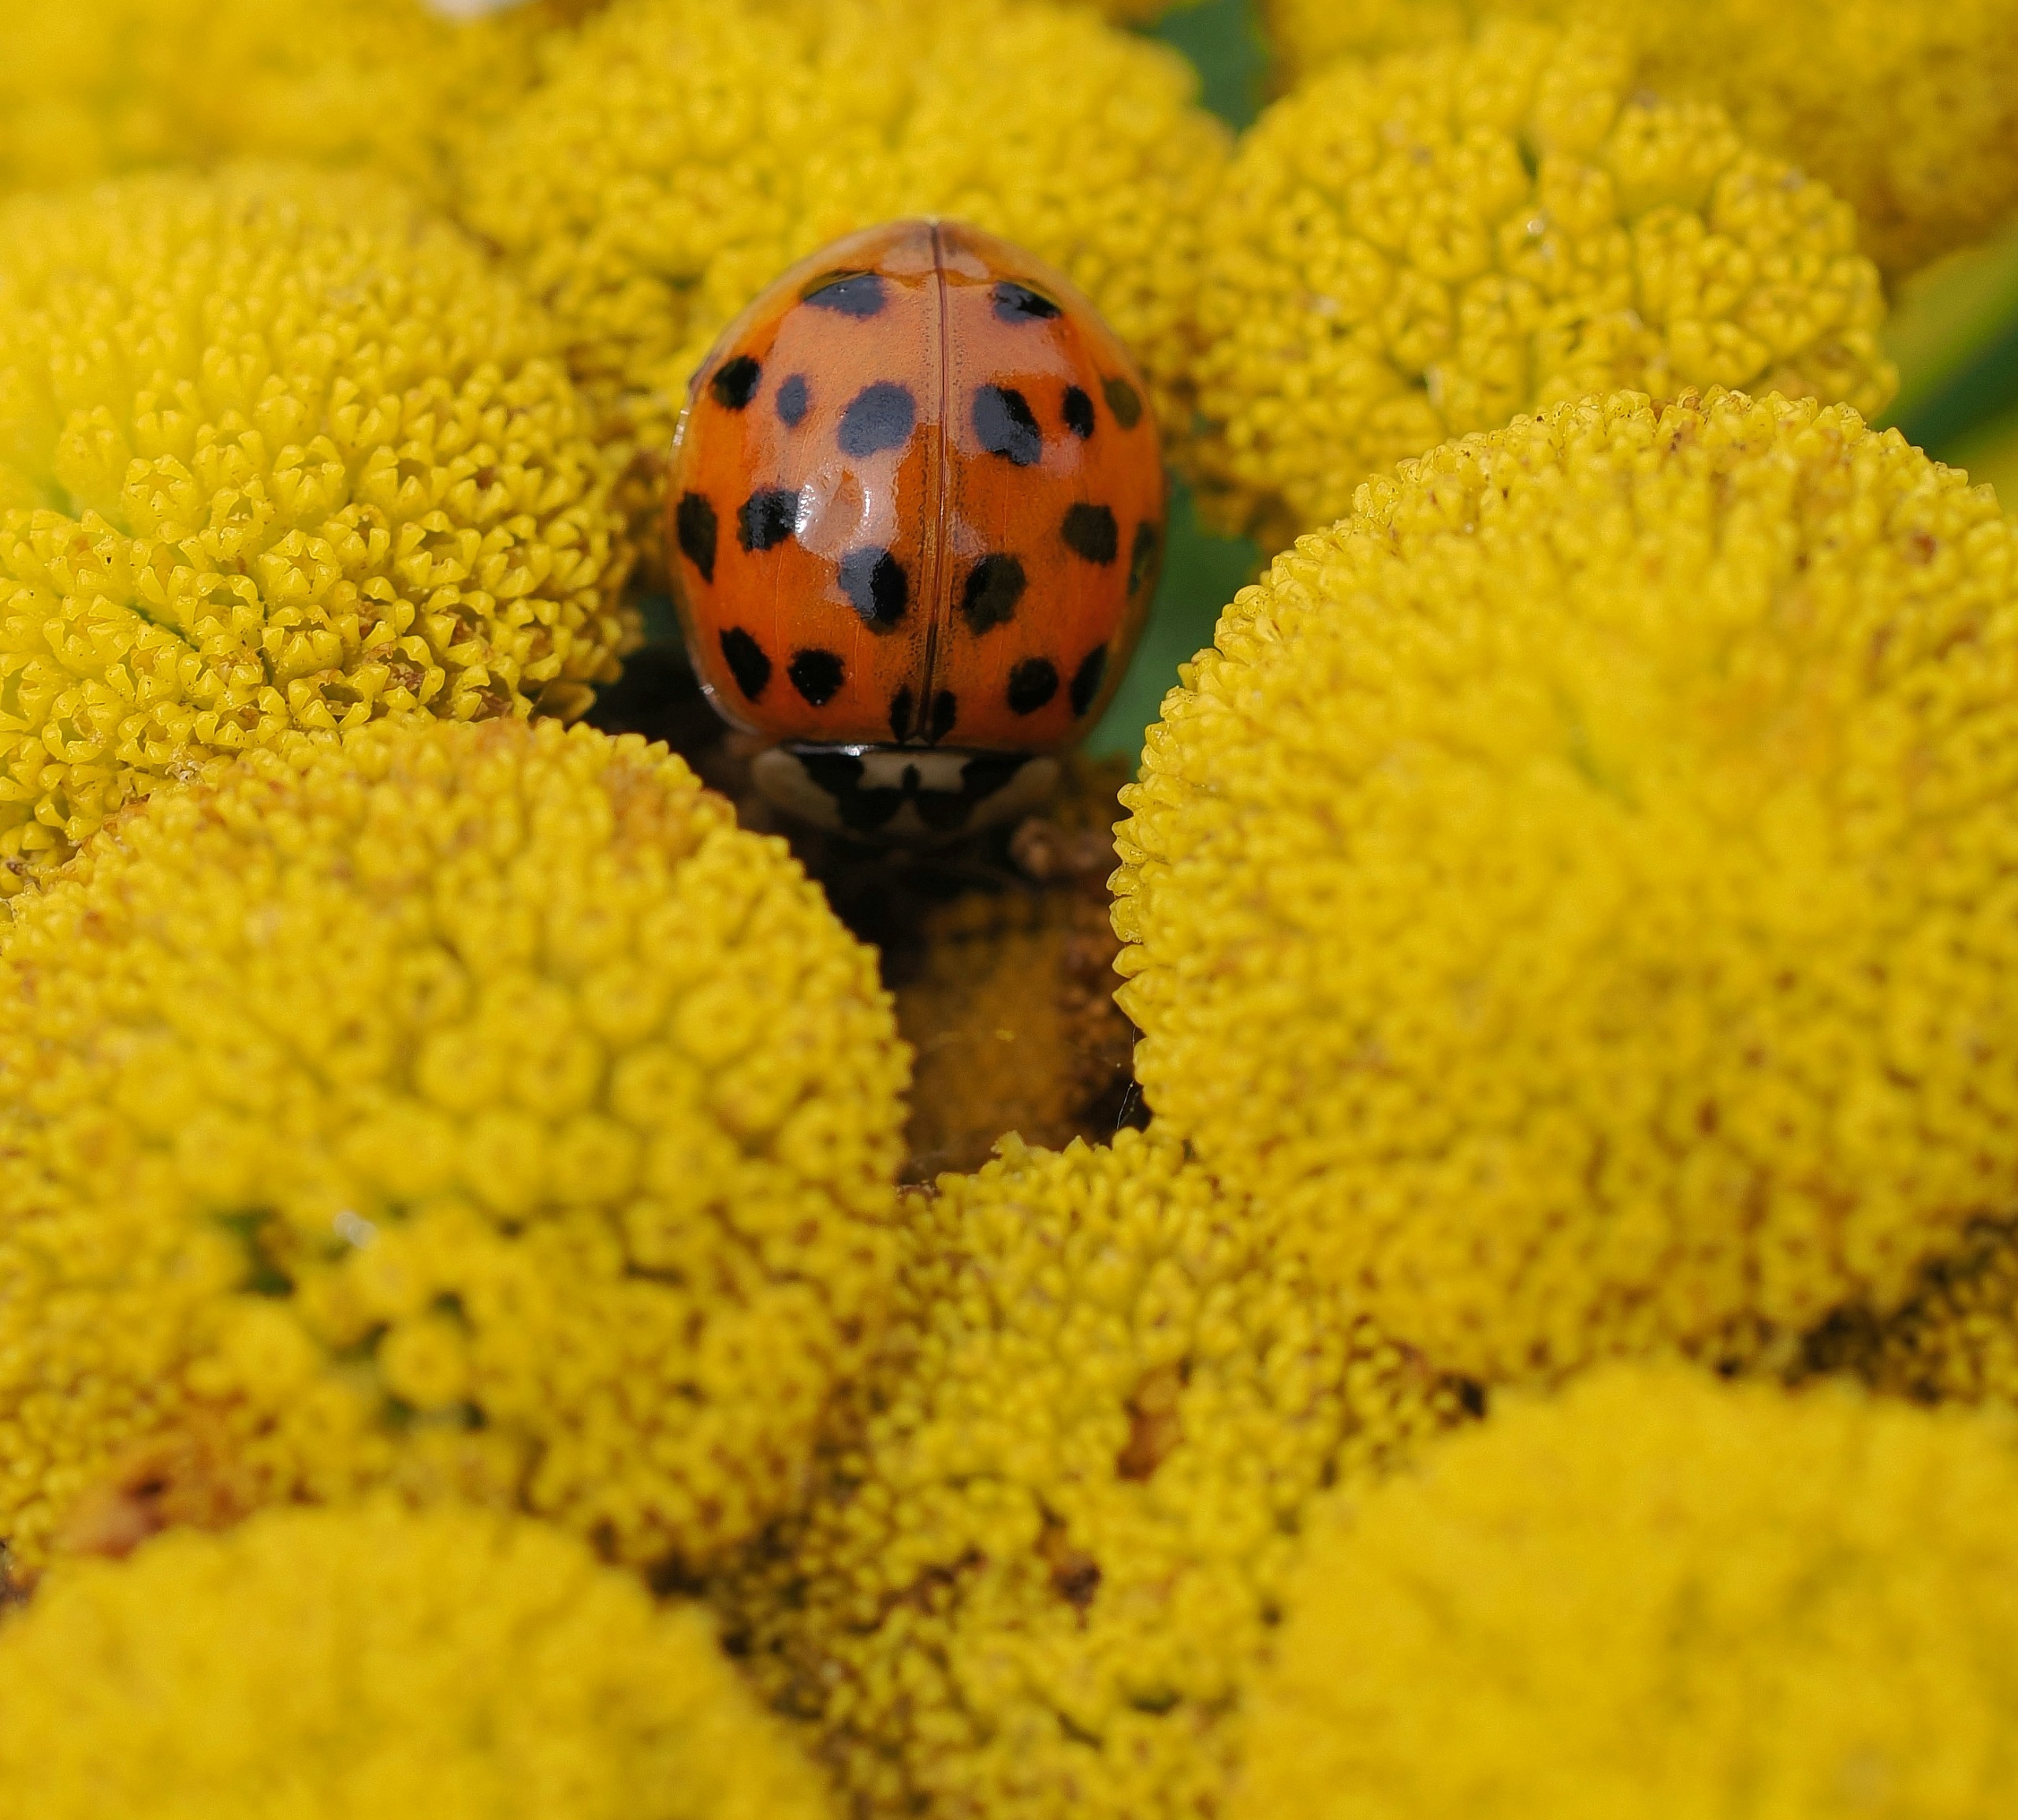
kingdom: Animalia
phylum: Arthropoda
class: Insecta
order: Coleoptera
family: Coccinellidae
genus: Harmonia
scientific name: Harmonia axyridis
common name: Harlekinmariehøne
